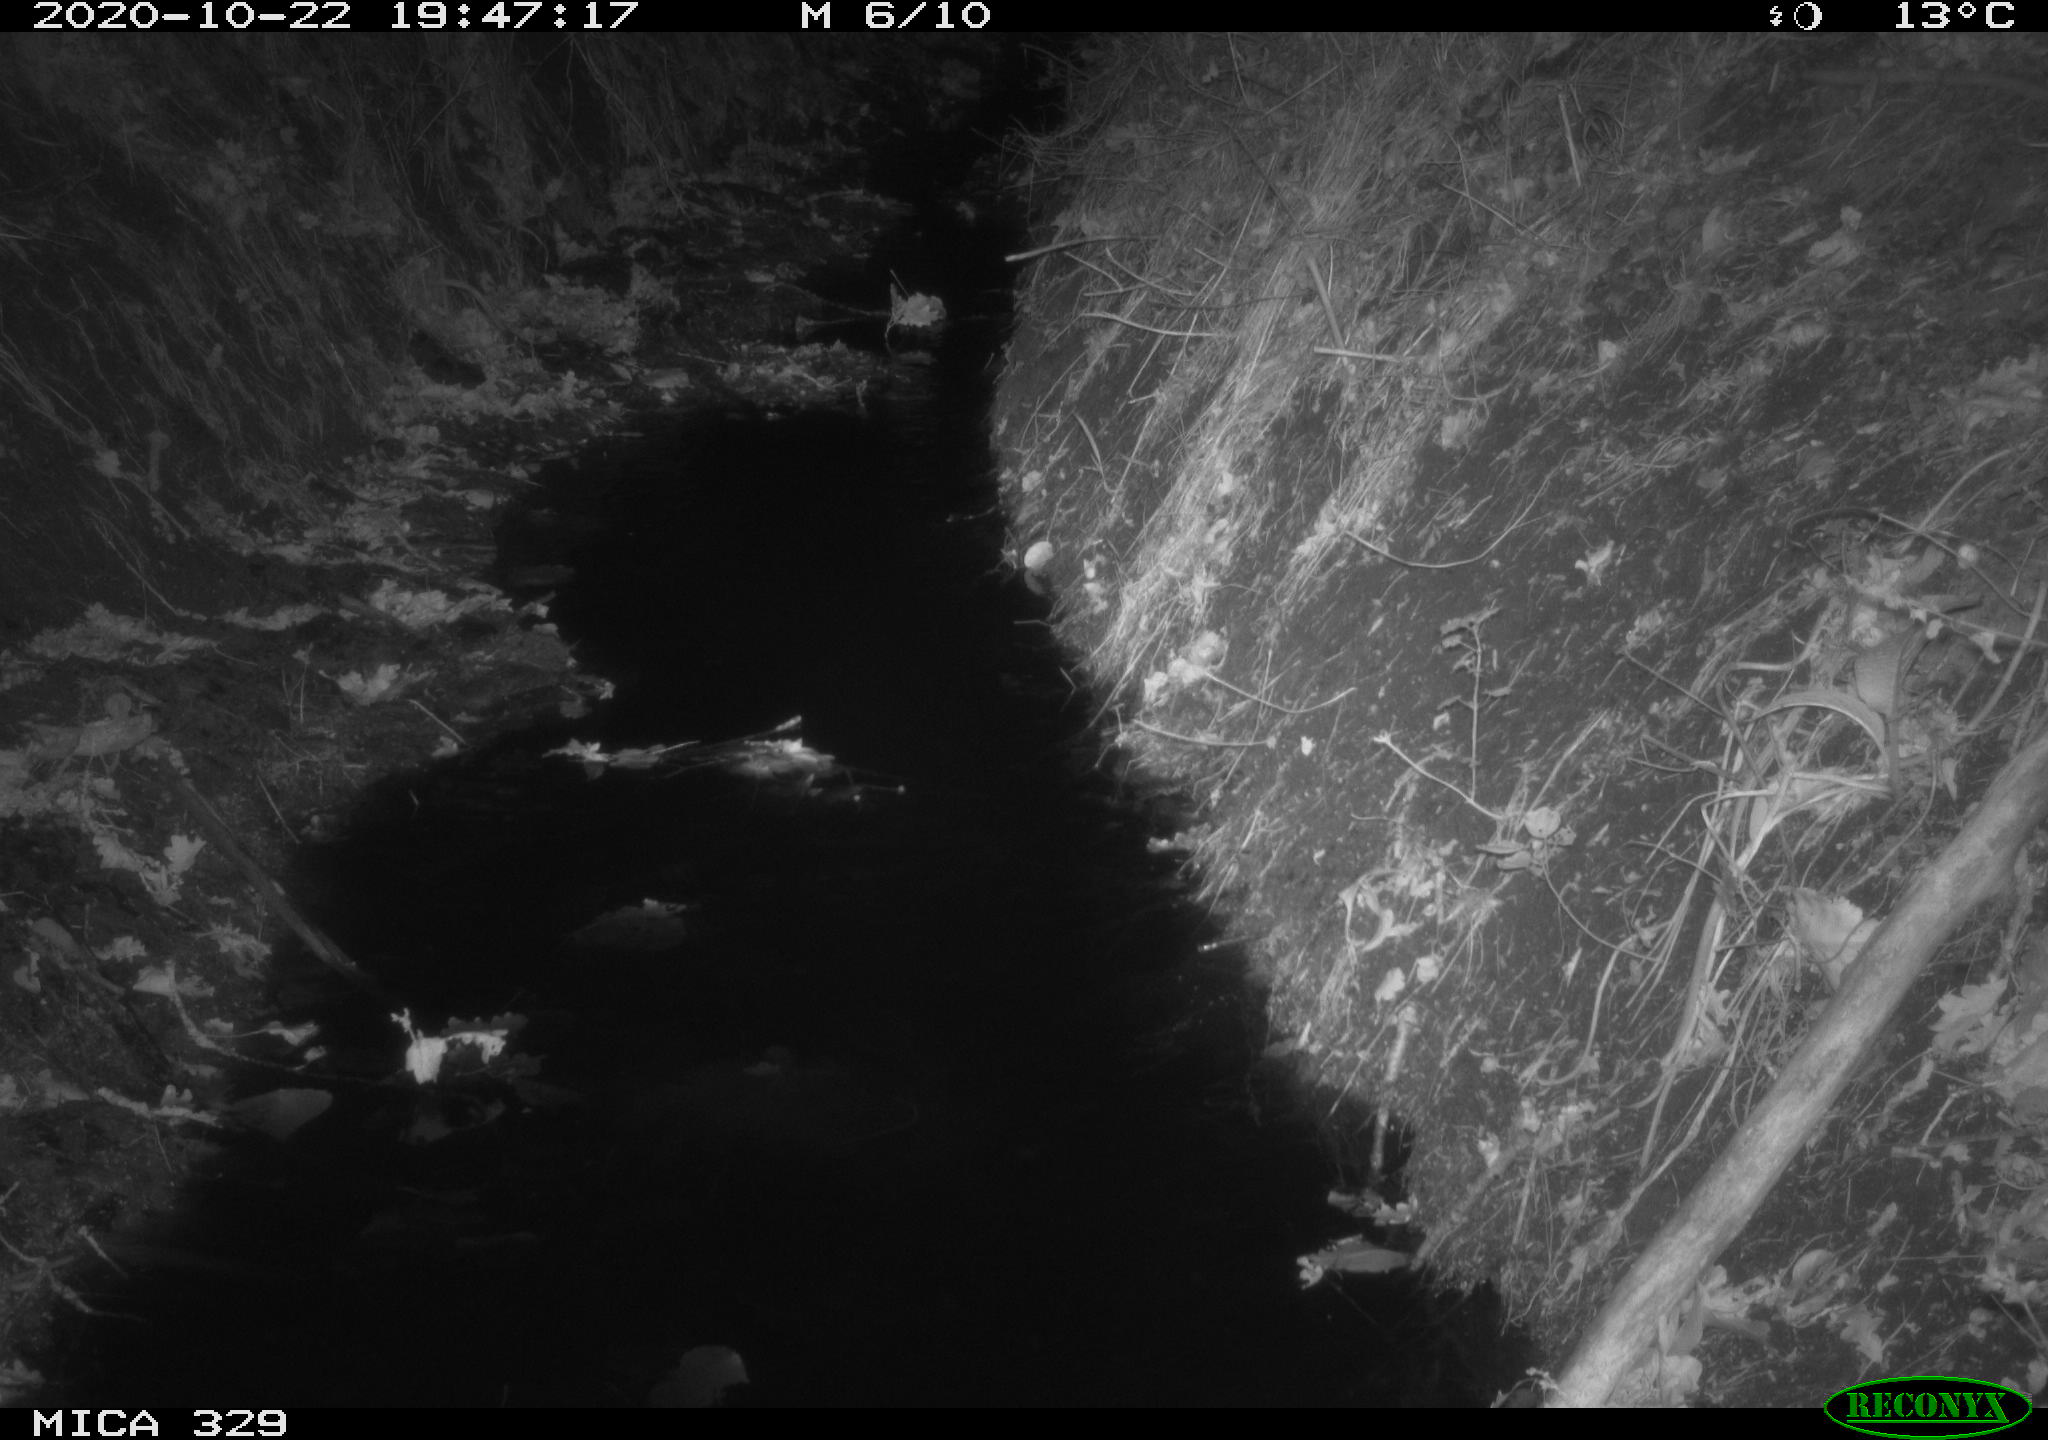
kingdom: Animalia
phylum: Chordata
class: Mammalia
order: Rodentia
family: Muridae
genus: Rattus
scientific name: Rattus norvegicus
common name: Brown rat
